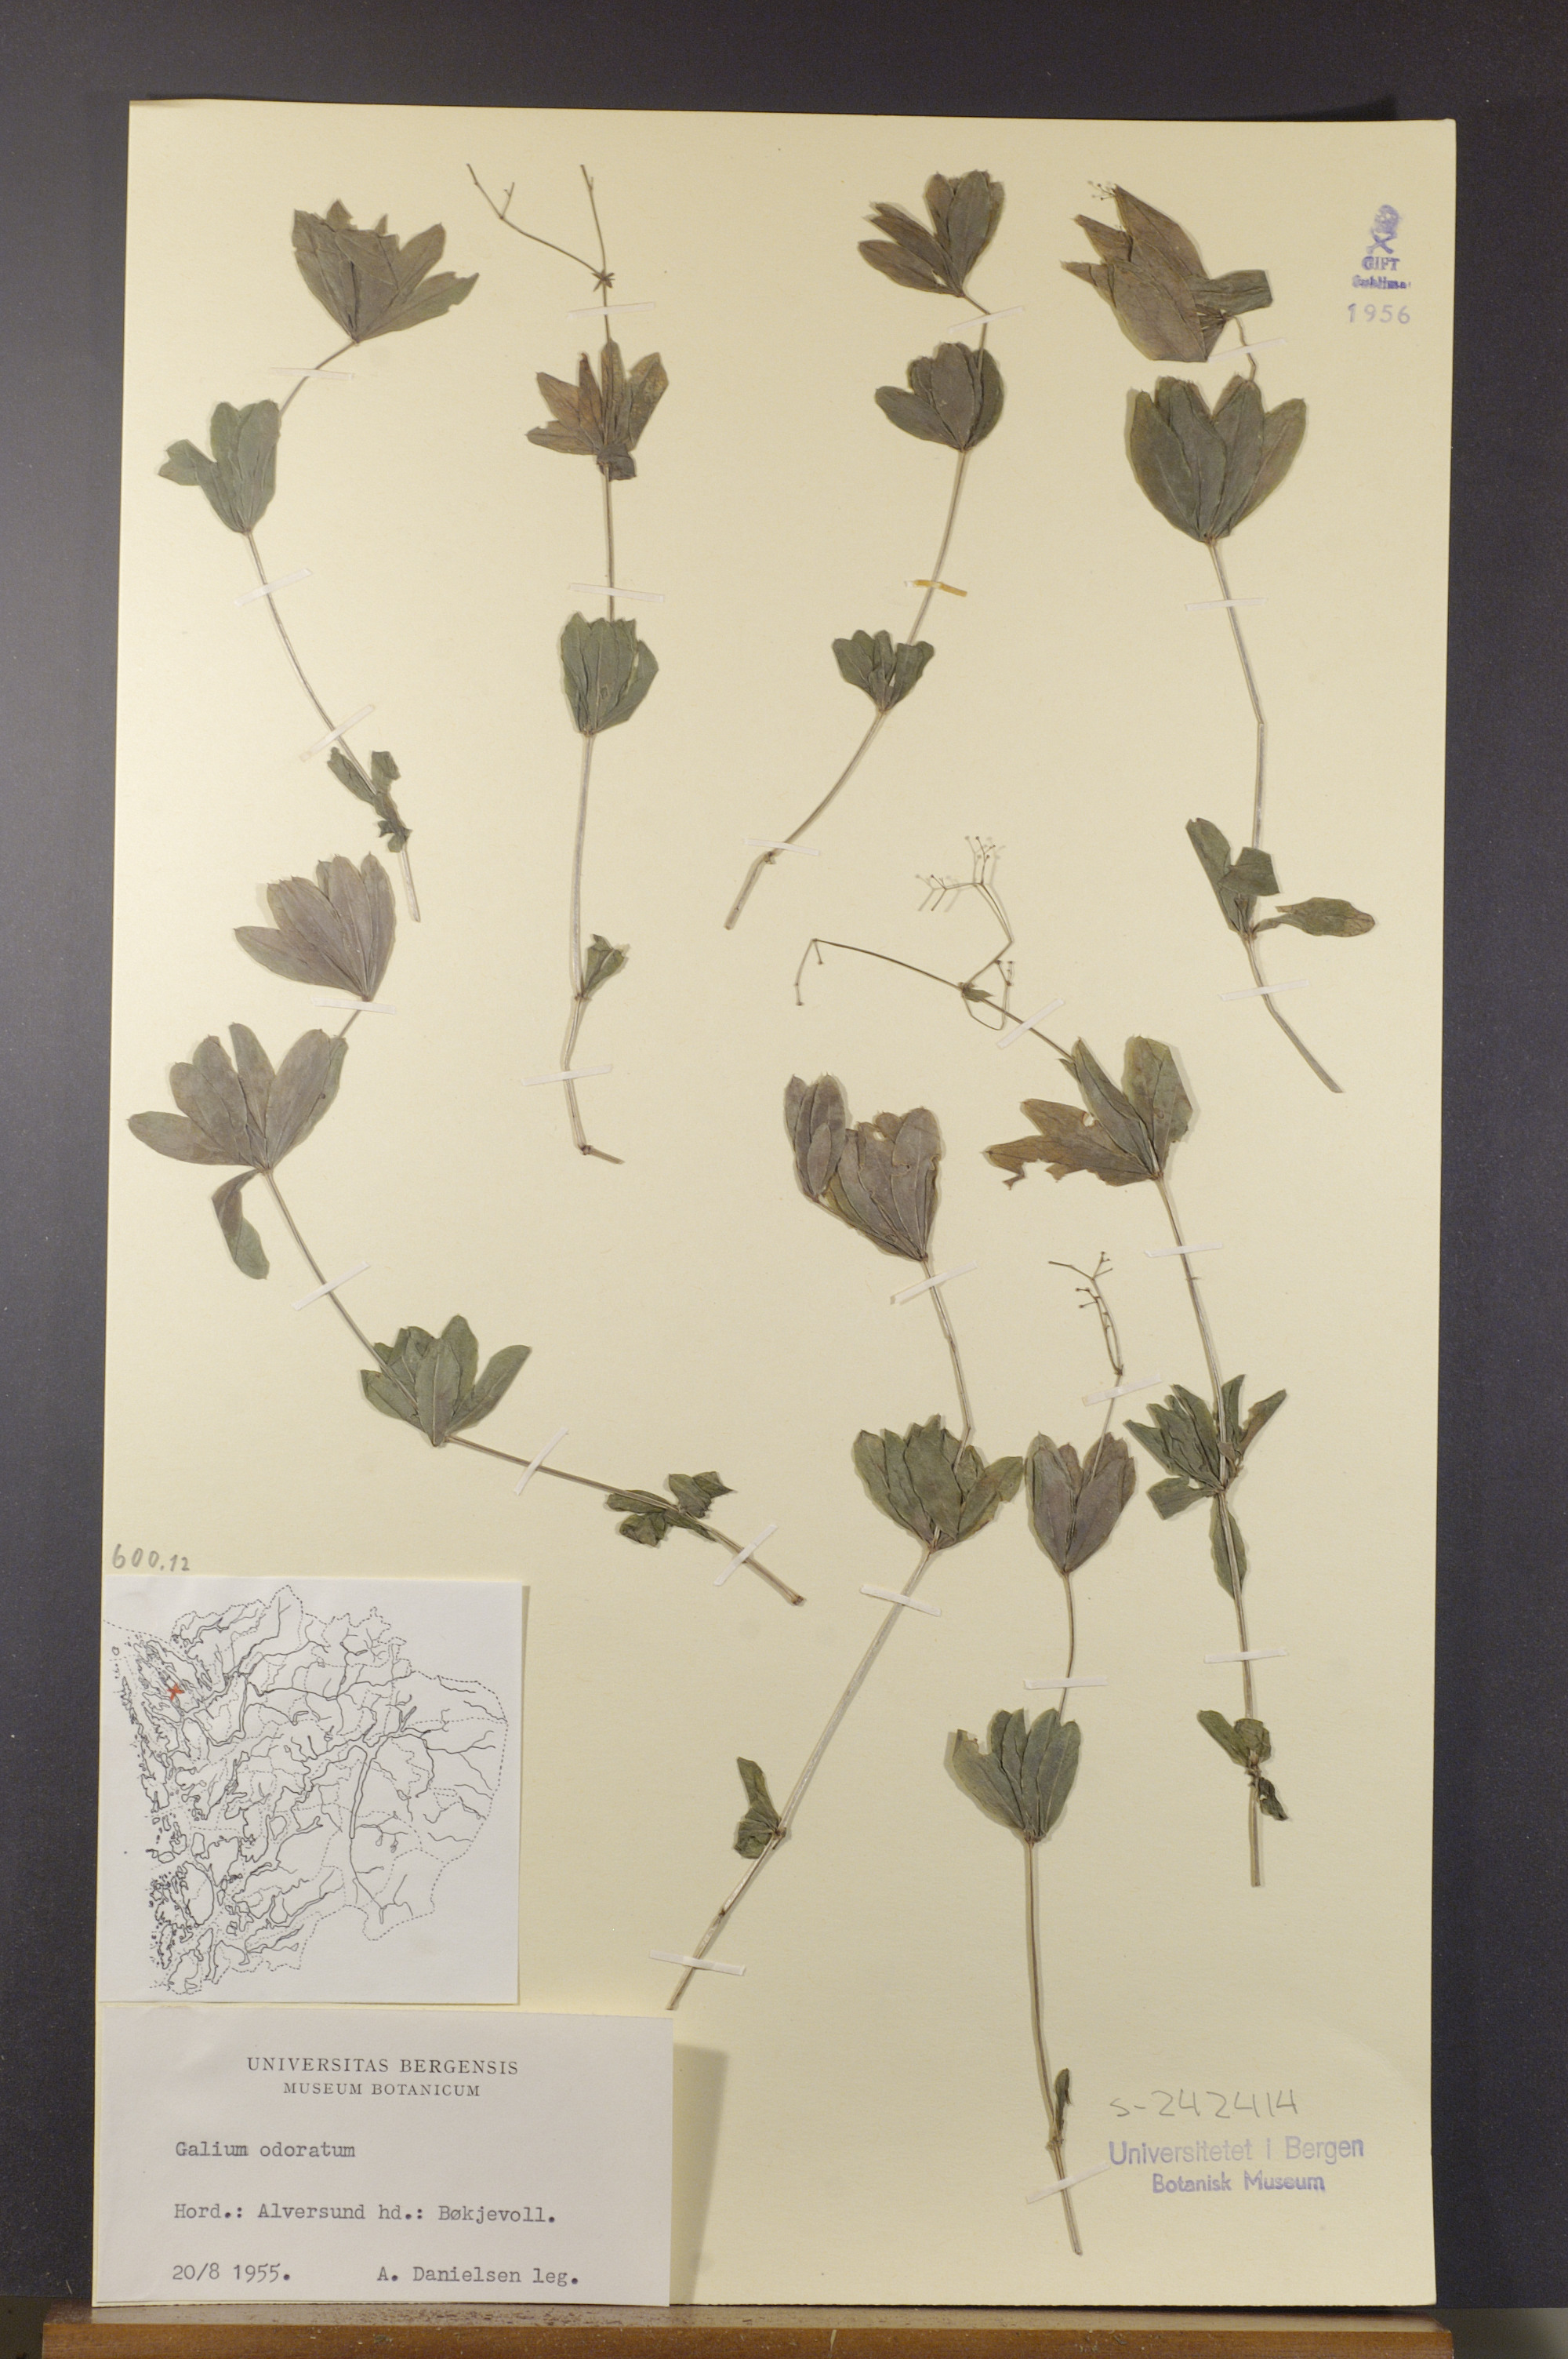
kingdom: Plantae
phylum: Tracheophyta
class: Magnoliopsida
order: Gentianales
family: Rubiaceae
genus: Galium
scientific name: Galium odoratum
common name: Sweet woodruff
